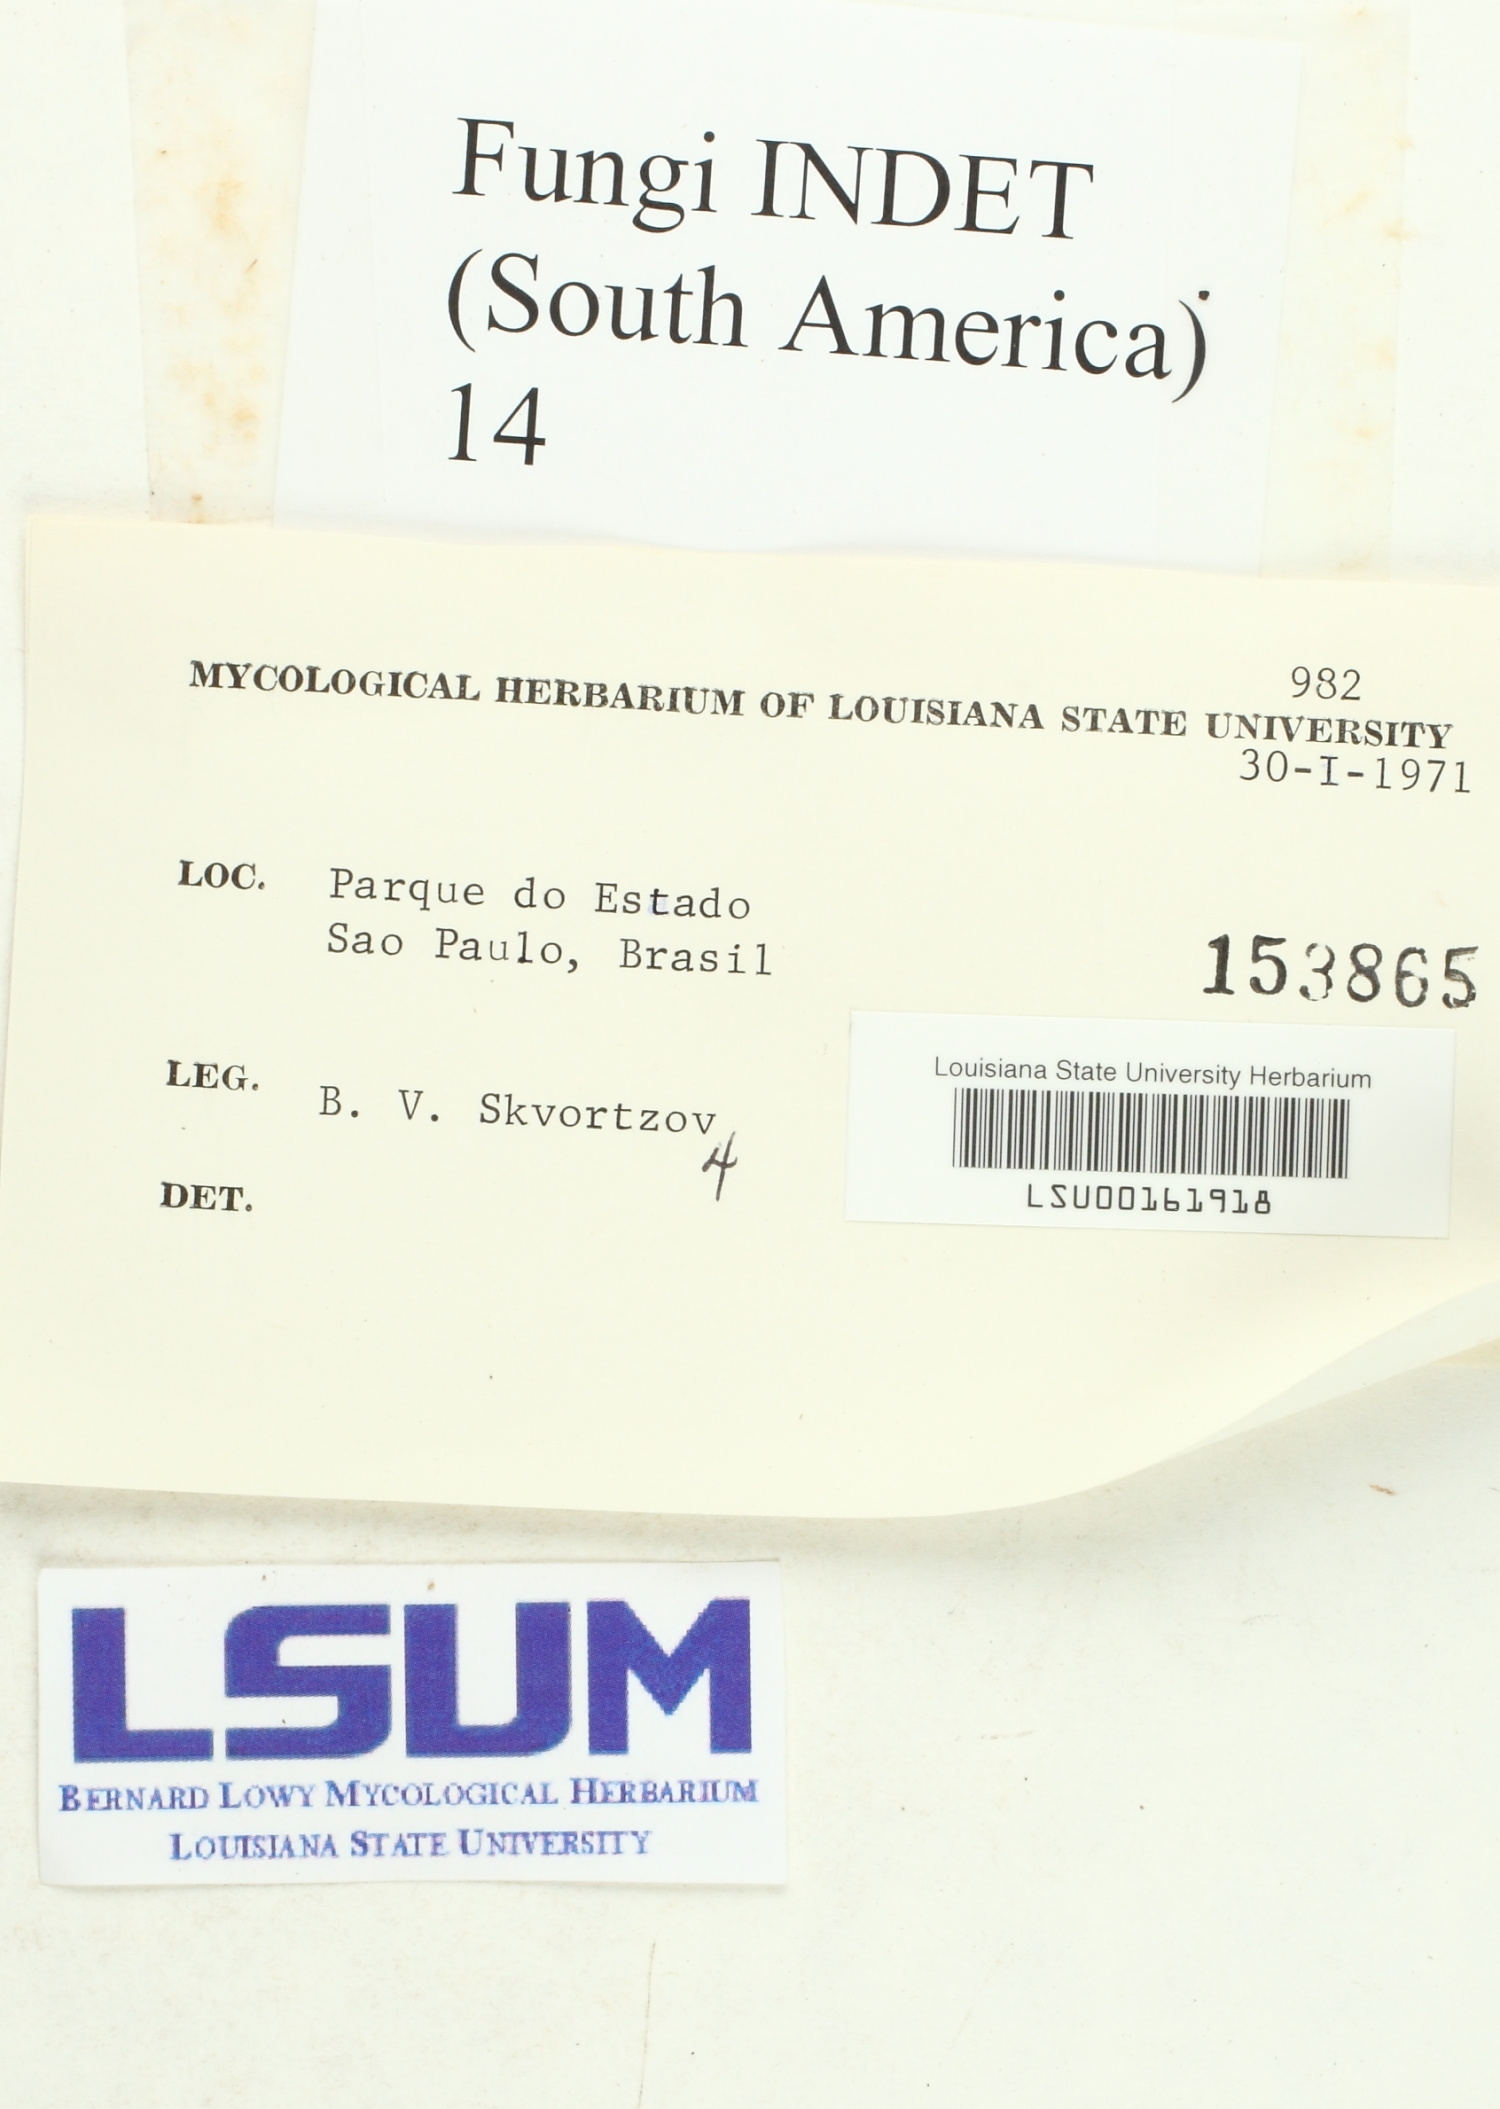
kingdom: Fungi
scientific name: Fungi
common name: Fungi
